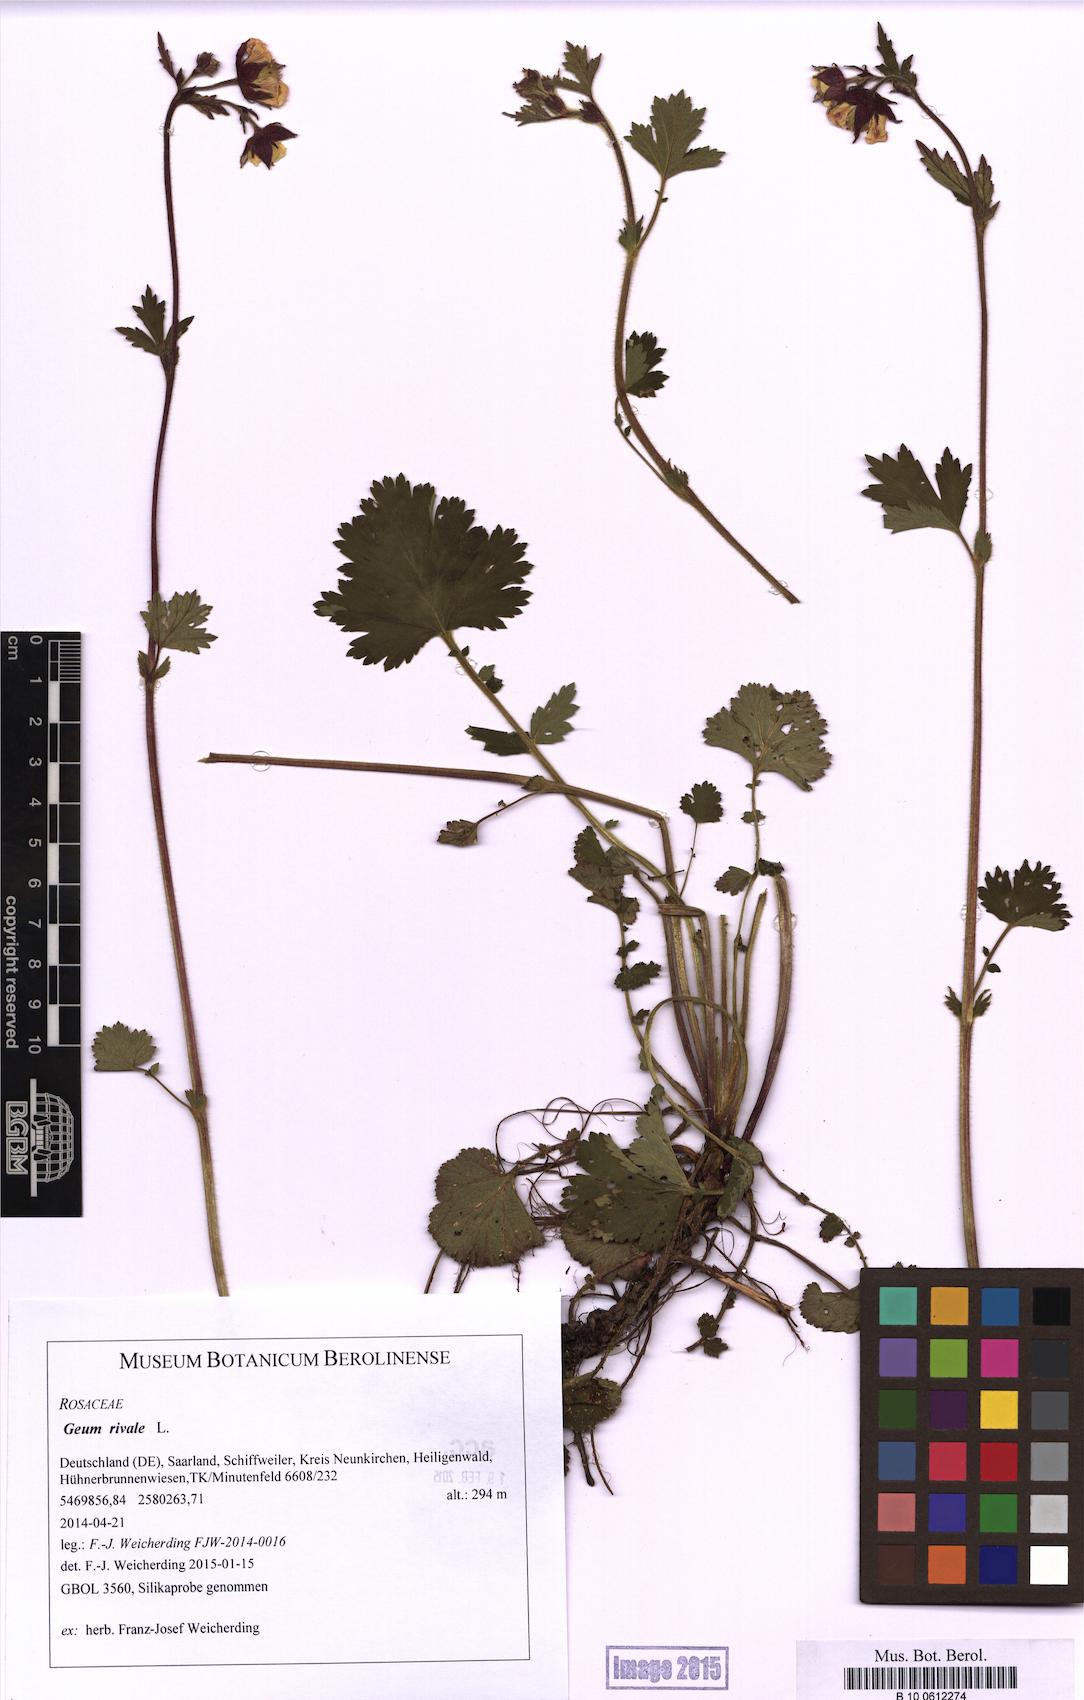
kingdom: Plantae
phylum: Tracheophyta
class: Magnoliopsida
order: Rosales
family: Rosaceae
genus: Geum
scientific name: Geum rivale
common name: Water avens
